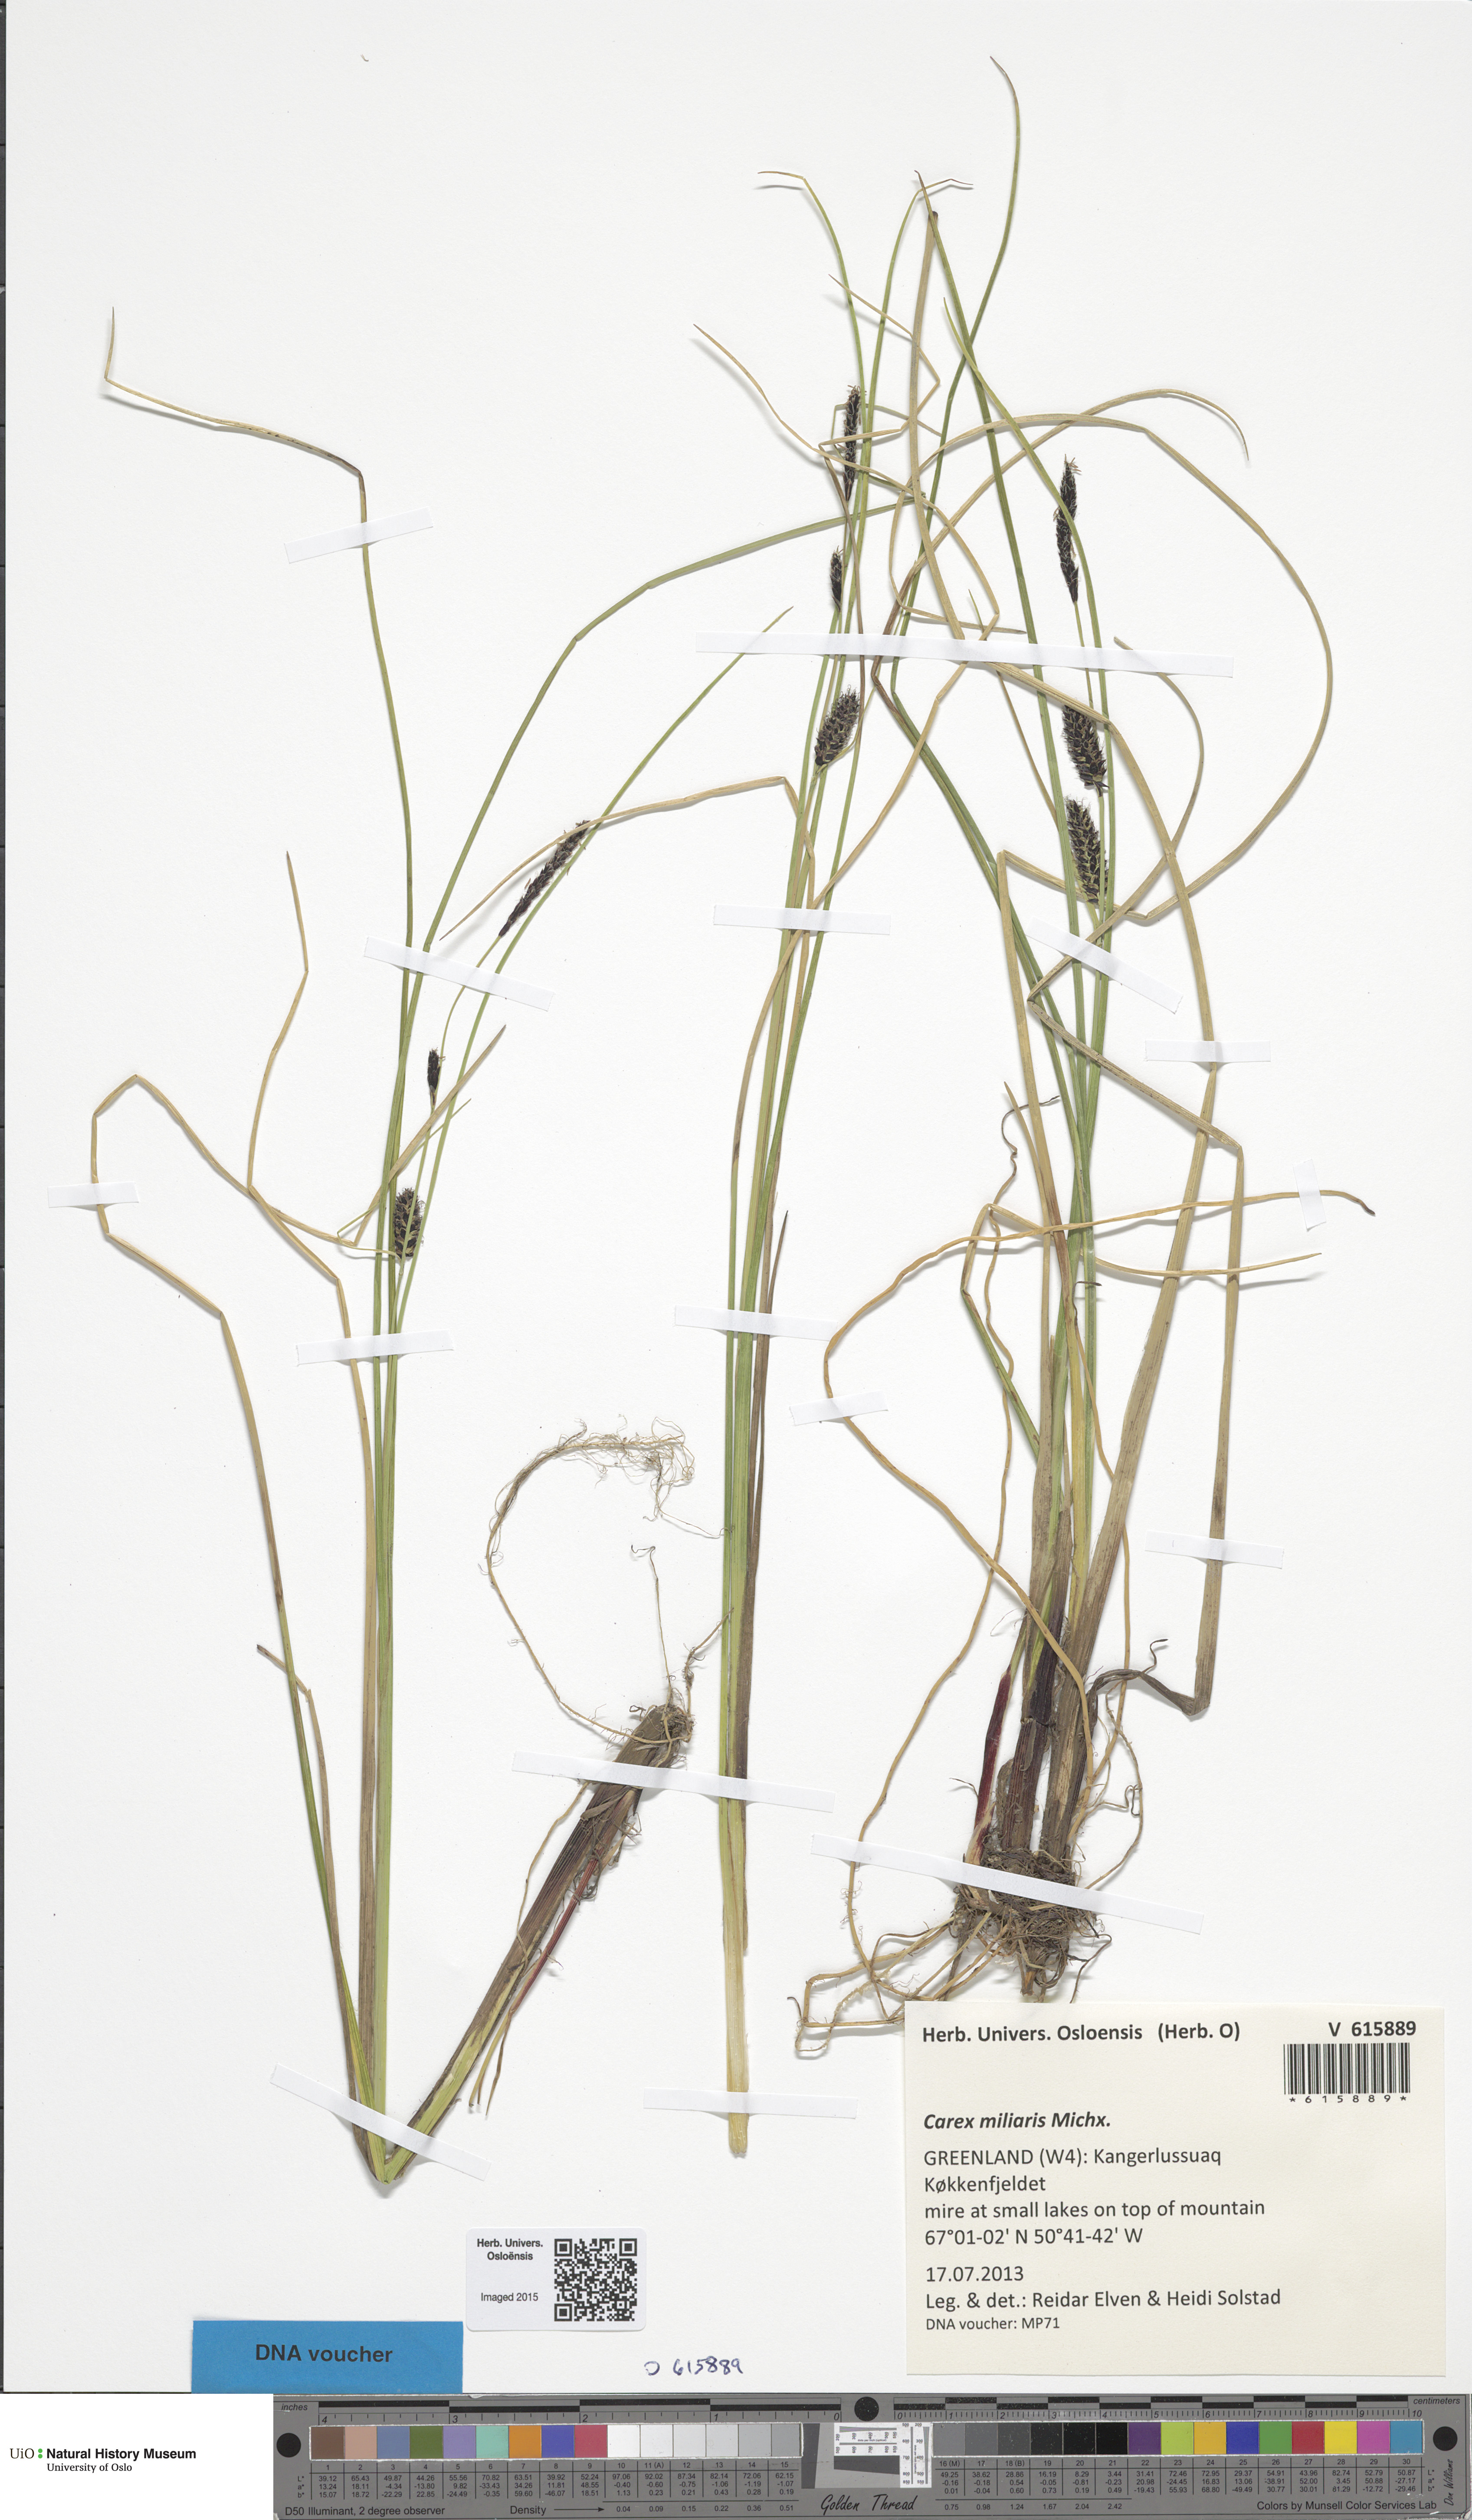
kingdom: Plantae
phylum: Tracheophyta
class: Liliopsida
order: Poales
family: Cyperaceae
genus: Carex
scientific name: Carex miliaris
